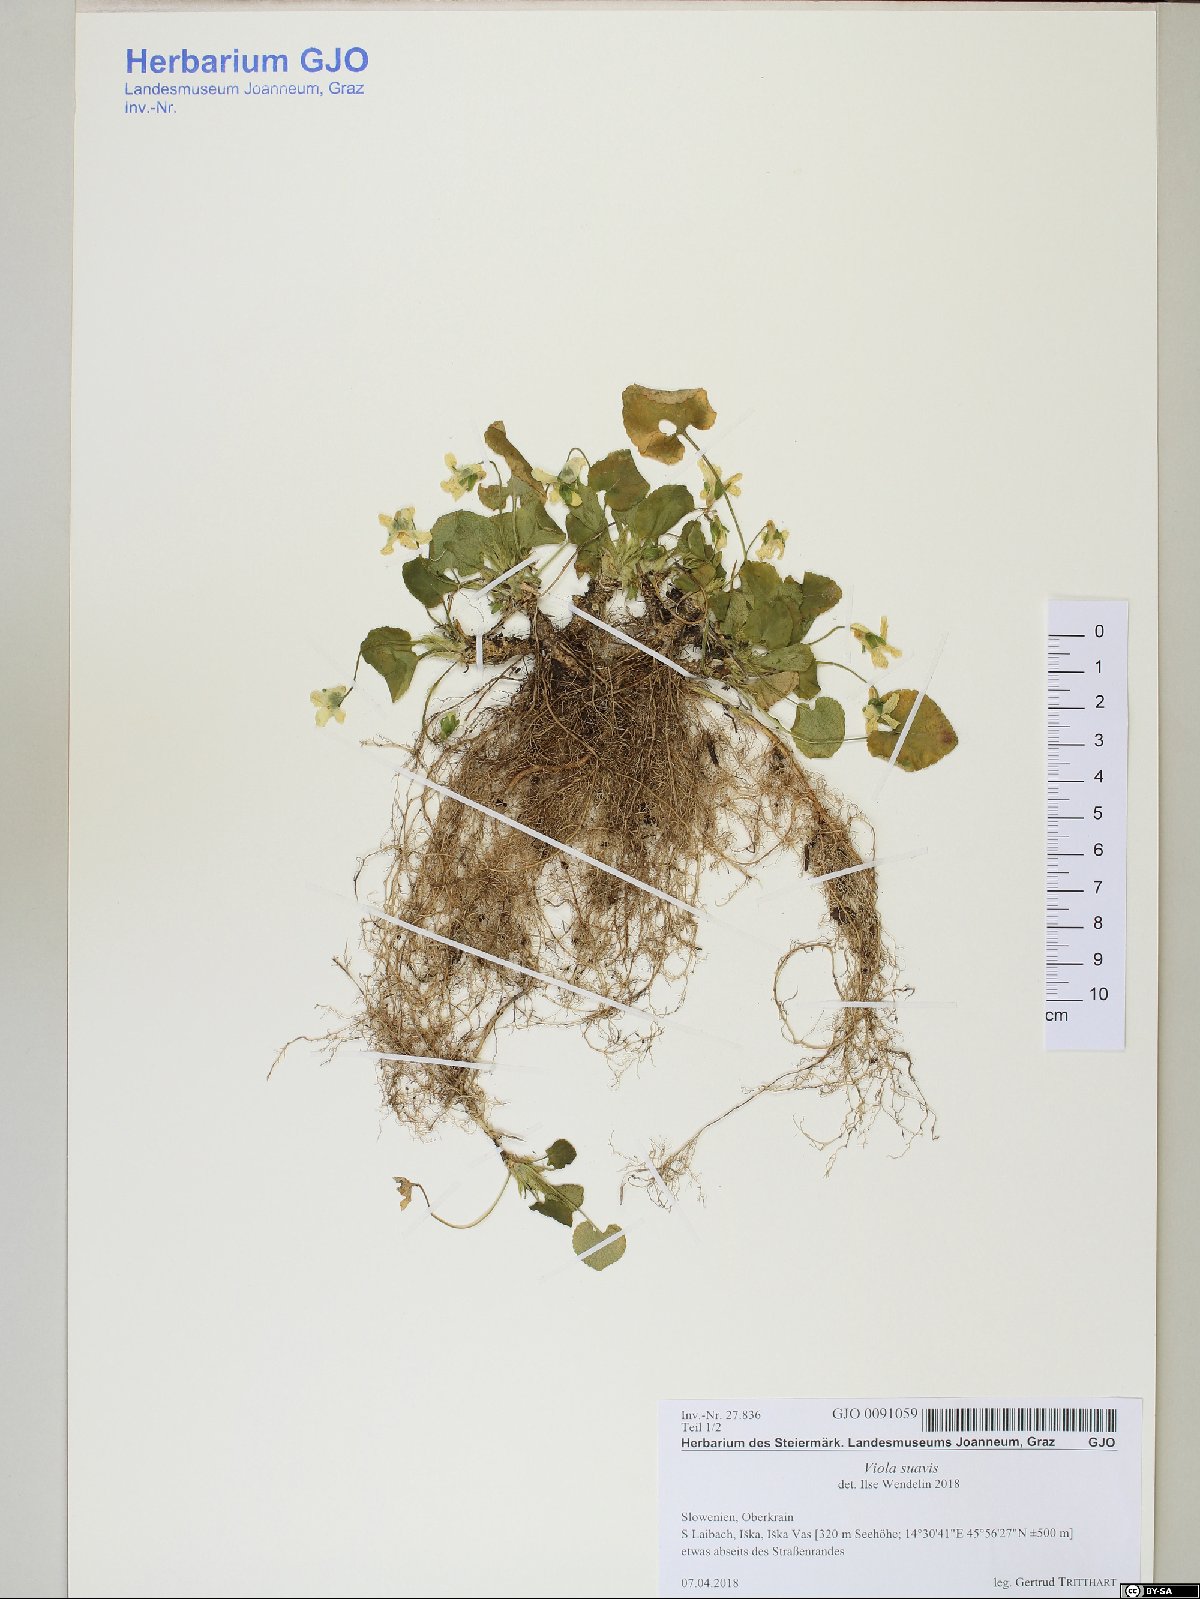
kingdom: Plantae
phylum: Tracheophyta
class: Magnoliopsida
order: Malpighiales
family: Violaceae
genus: Viola
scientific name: Viola suavis
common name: Russian violet
